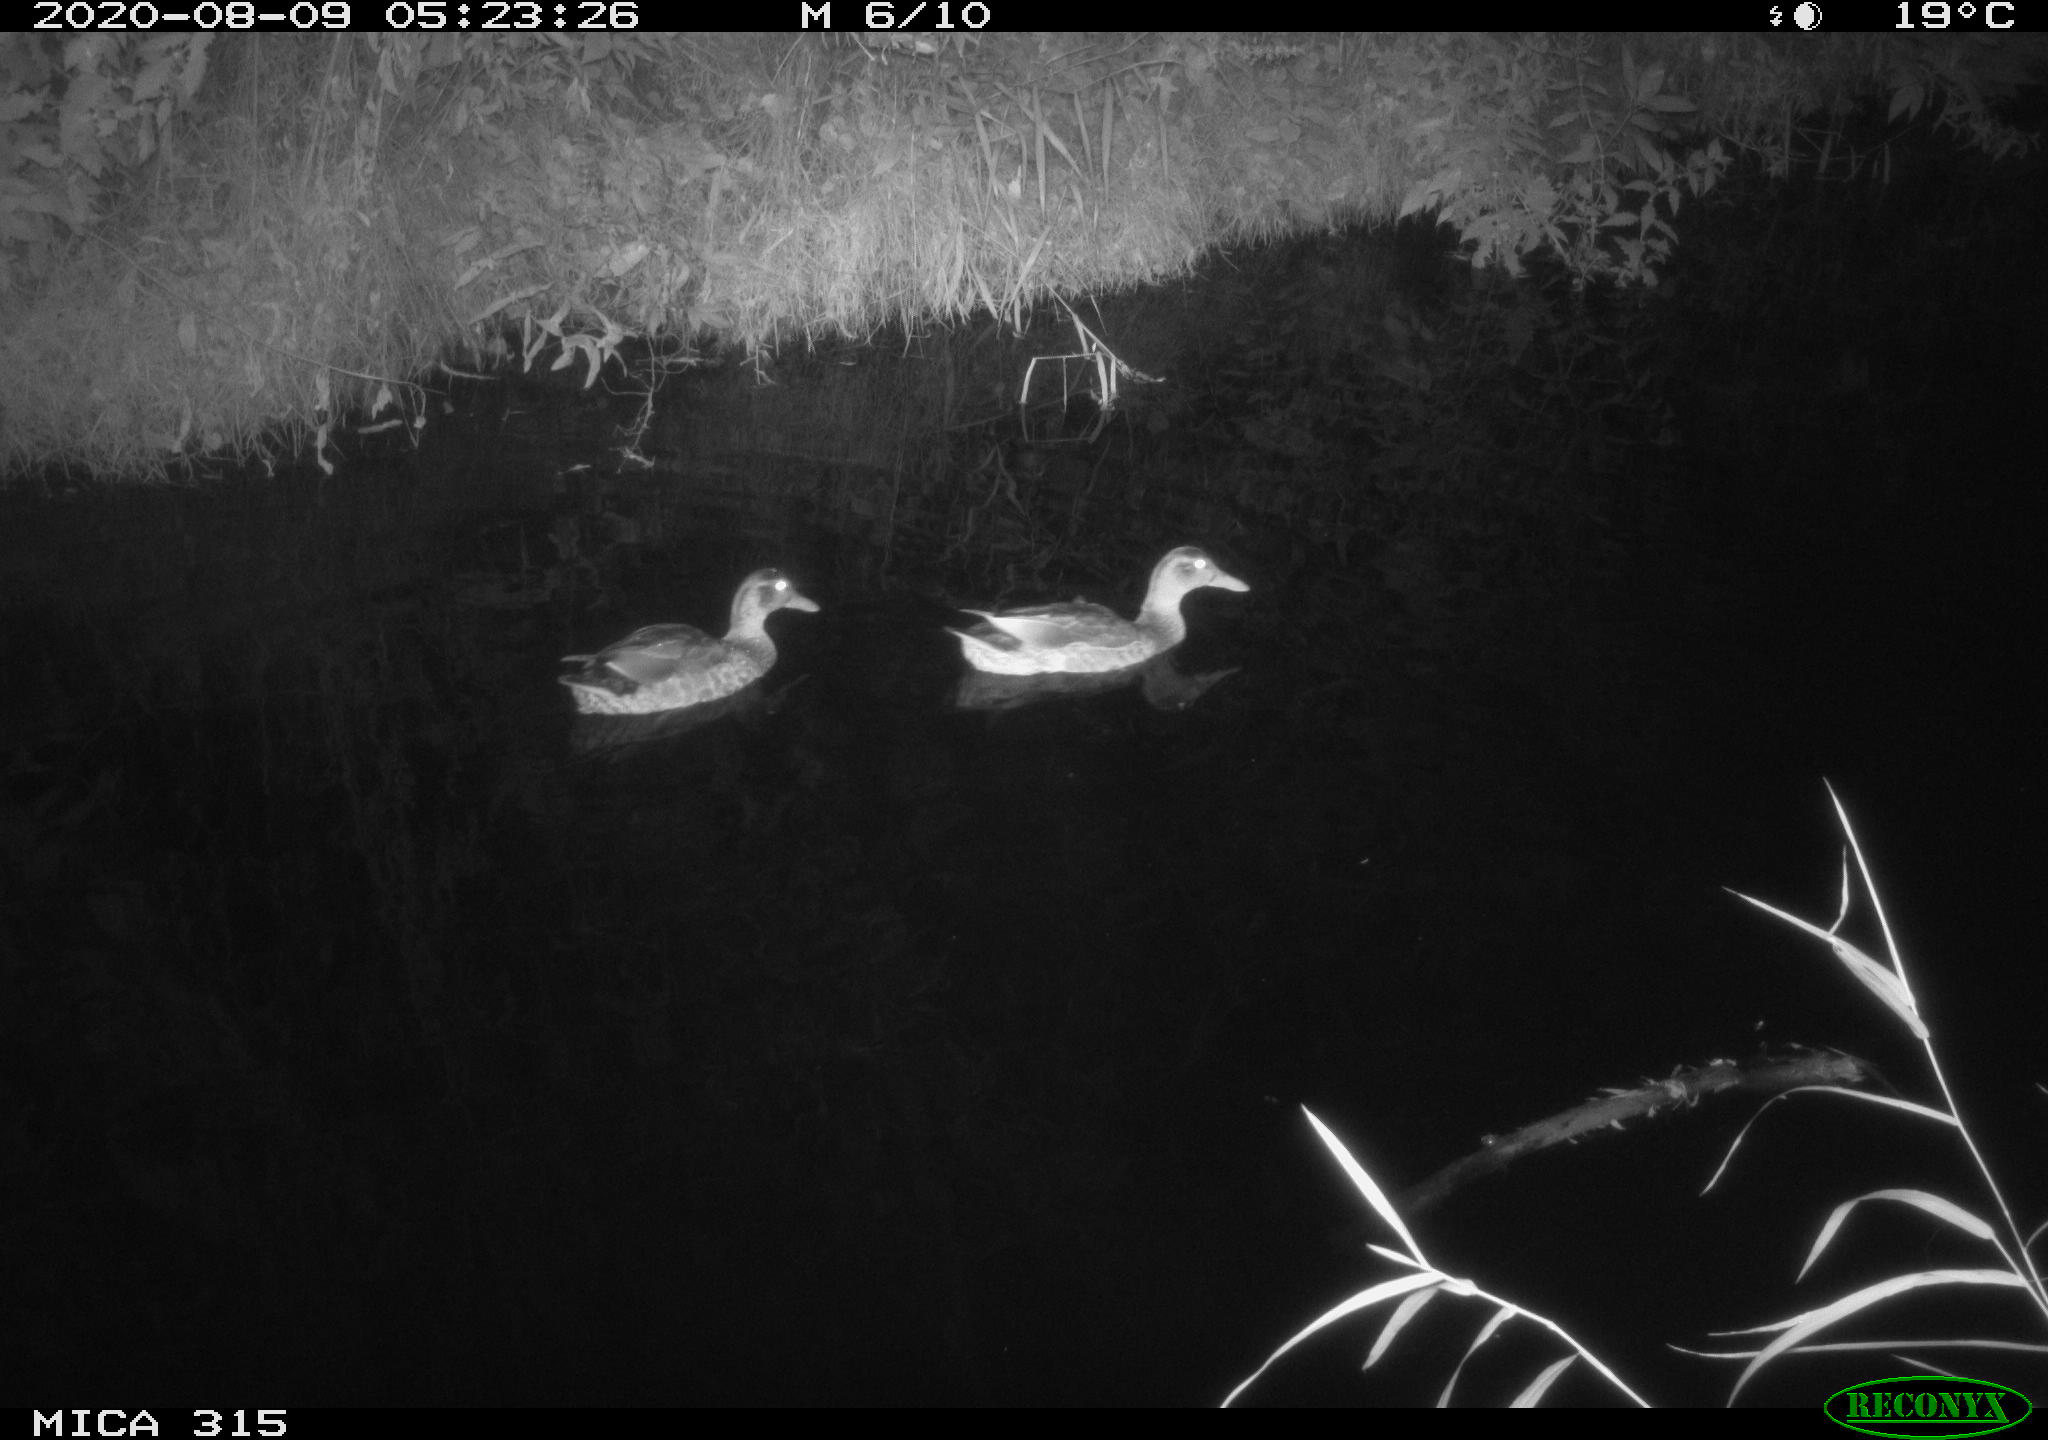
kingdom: Animalia
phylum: Chordata
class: Aves
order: Anseriformes
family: Anatidae
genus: Anas
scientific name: Anas platyrhynchos
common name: Mallard
